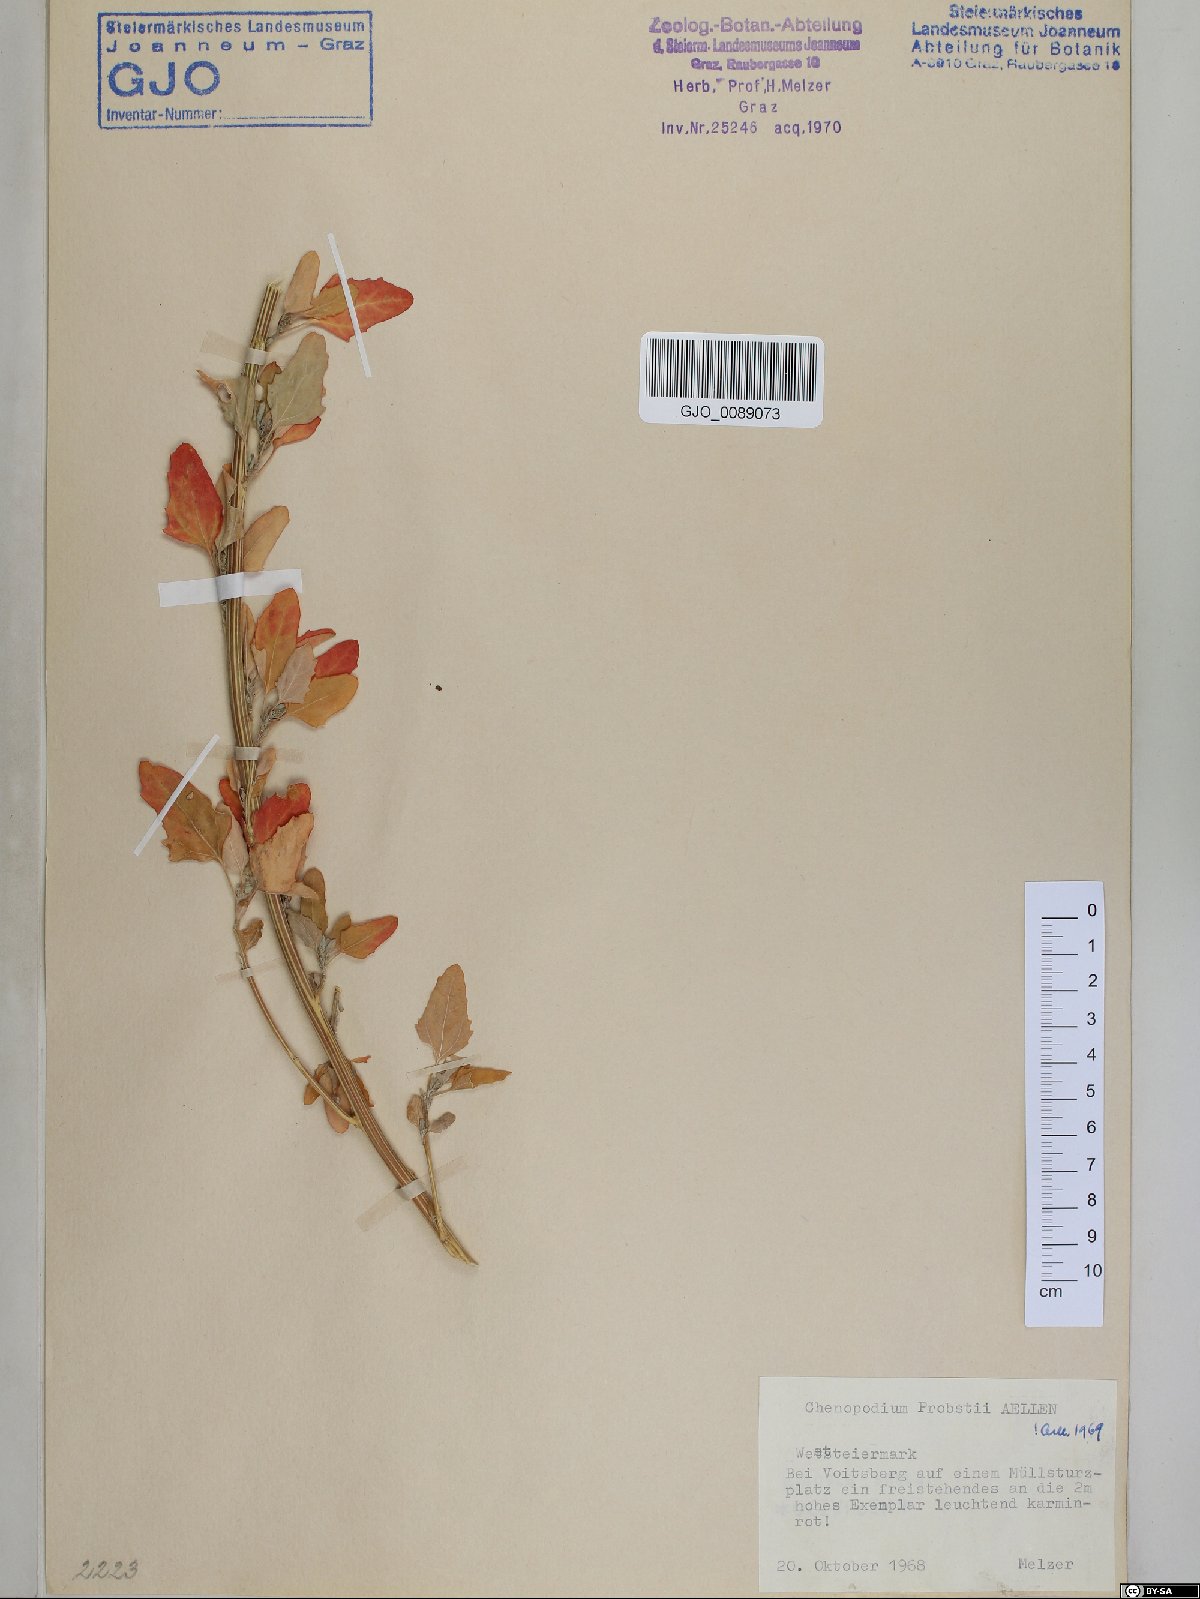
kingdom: Plantae
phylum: Tracheophyta
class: Magnoliopsida
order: Caryophyllales
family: Amaranthaceae
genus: Chenopodium
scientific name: Chenopodium probstii
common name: Probst's goosefoot
